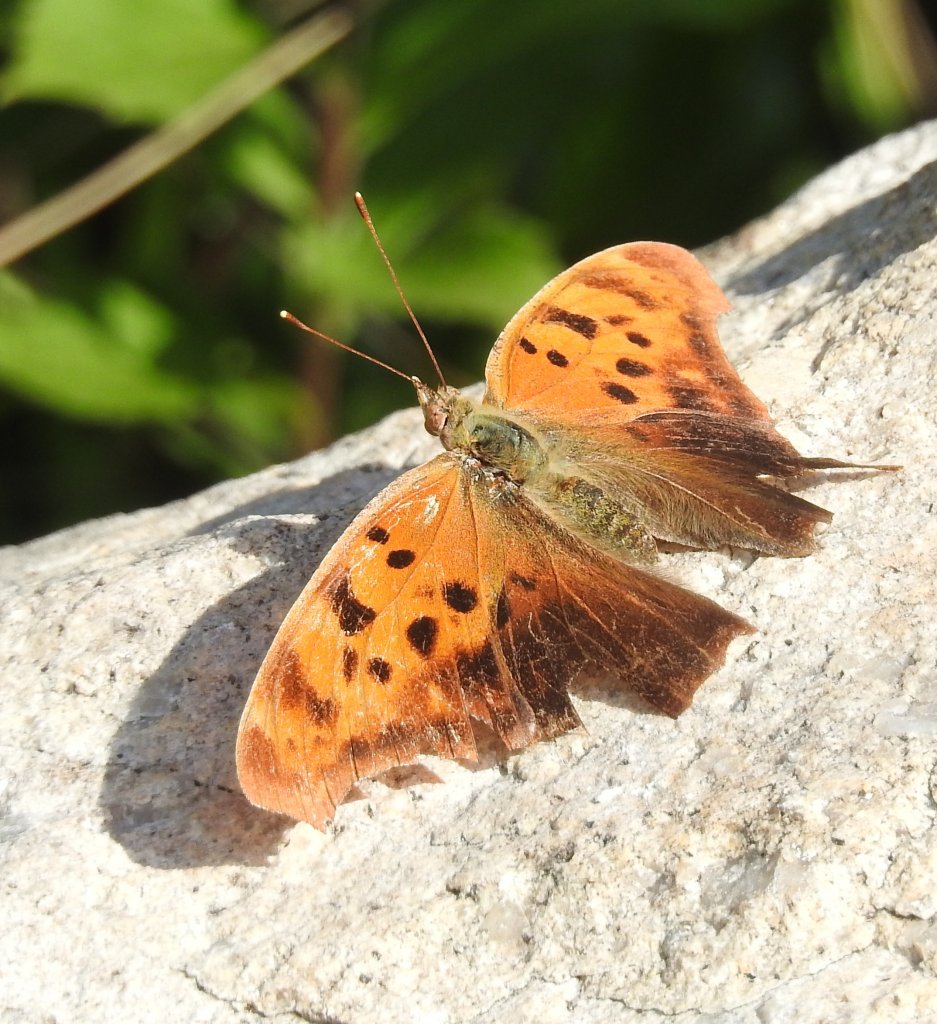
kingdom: Animalia
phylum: Arthropoda
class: Insecta
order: Lepidoptera
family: Nymphalidae
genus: Polygonia
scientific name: Polygonia interrogationis
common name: Question Mark
